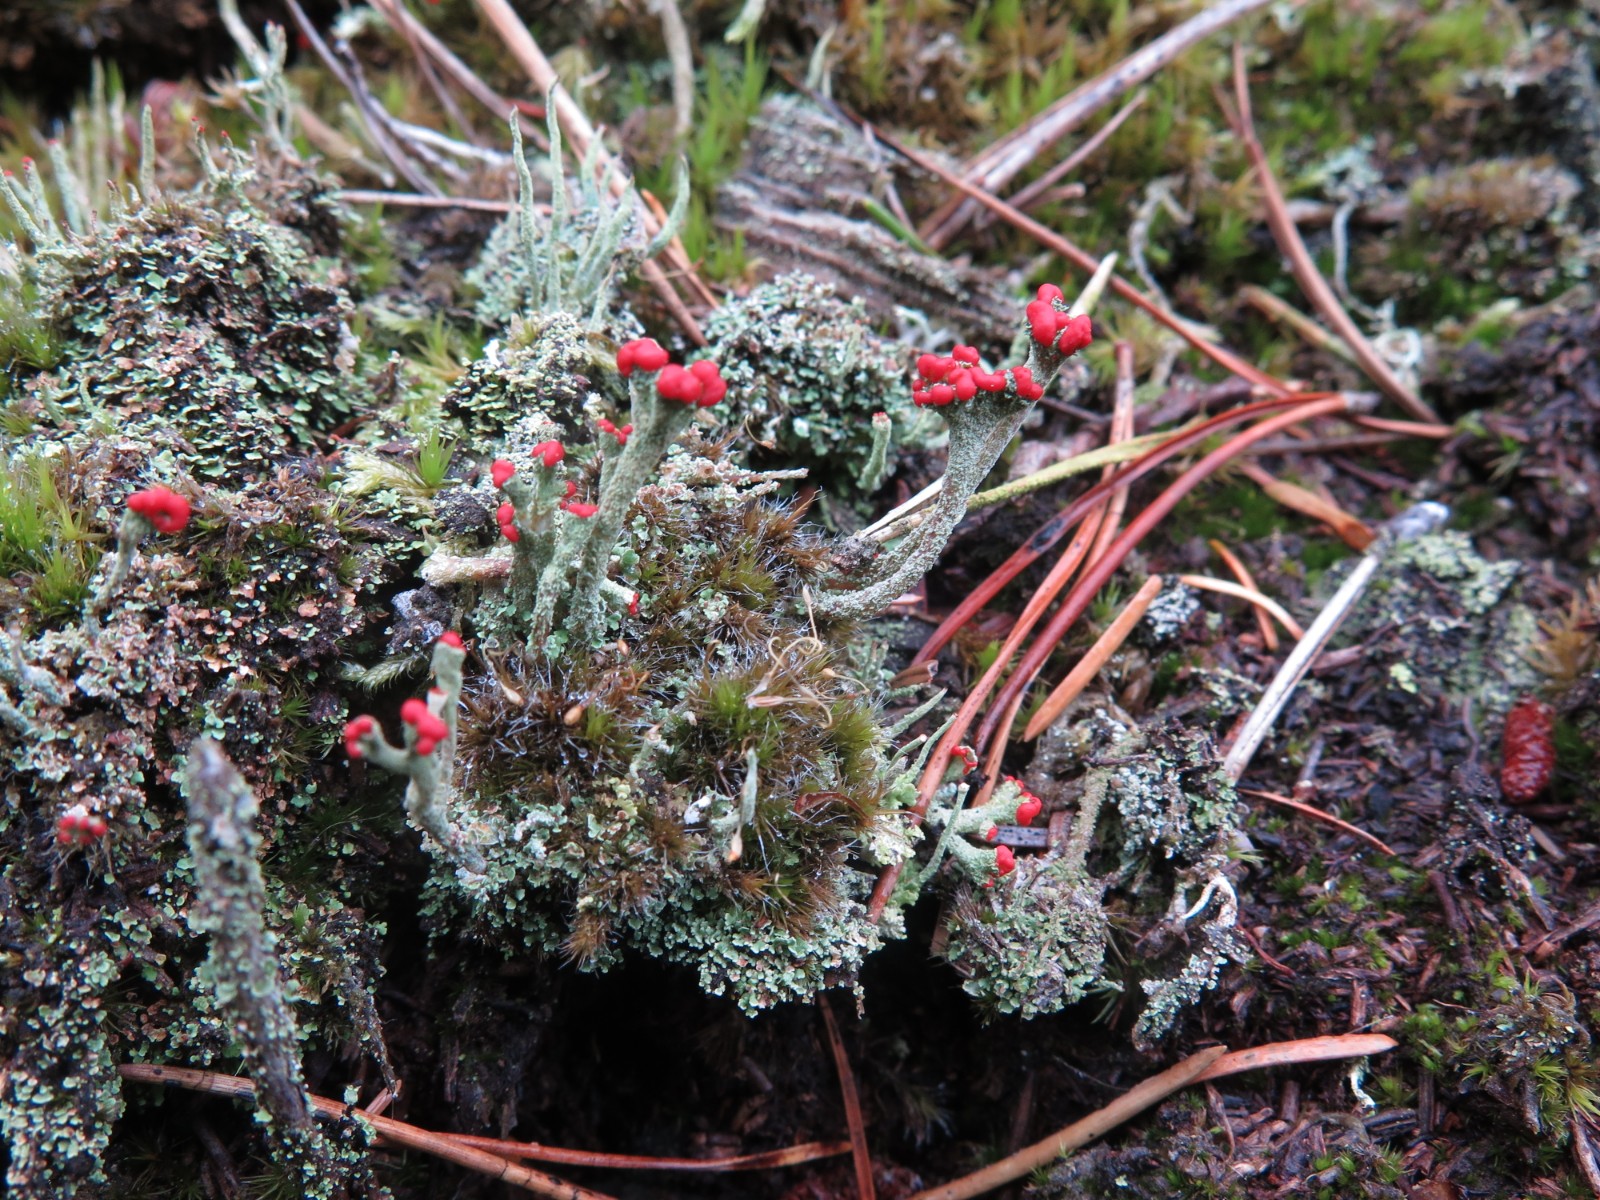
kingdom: Fungi
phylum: Ascomycota
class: Lecanoromycetes
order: Lecanorales
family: Cladoniaceae
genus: Cladonia
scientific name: Cladonia floerkeana
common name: lakrød bægerlav
